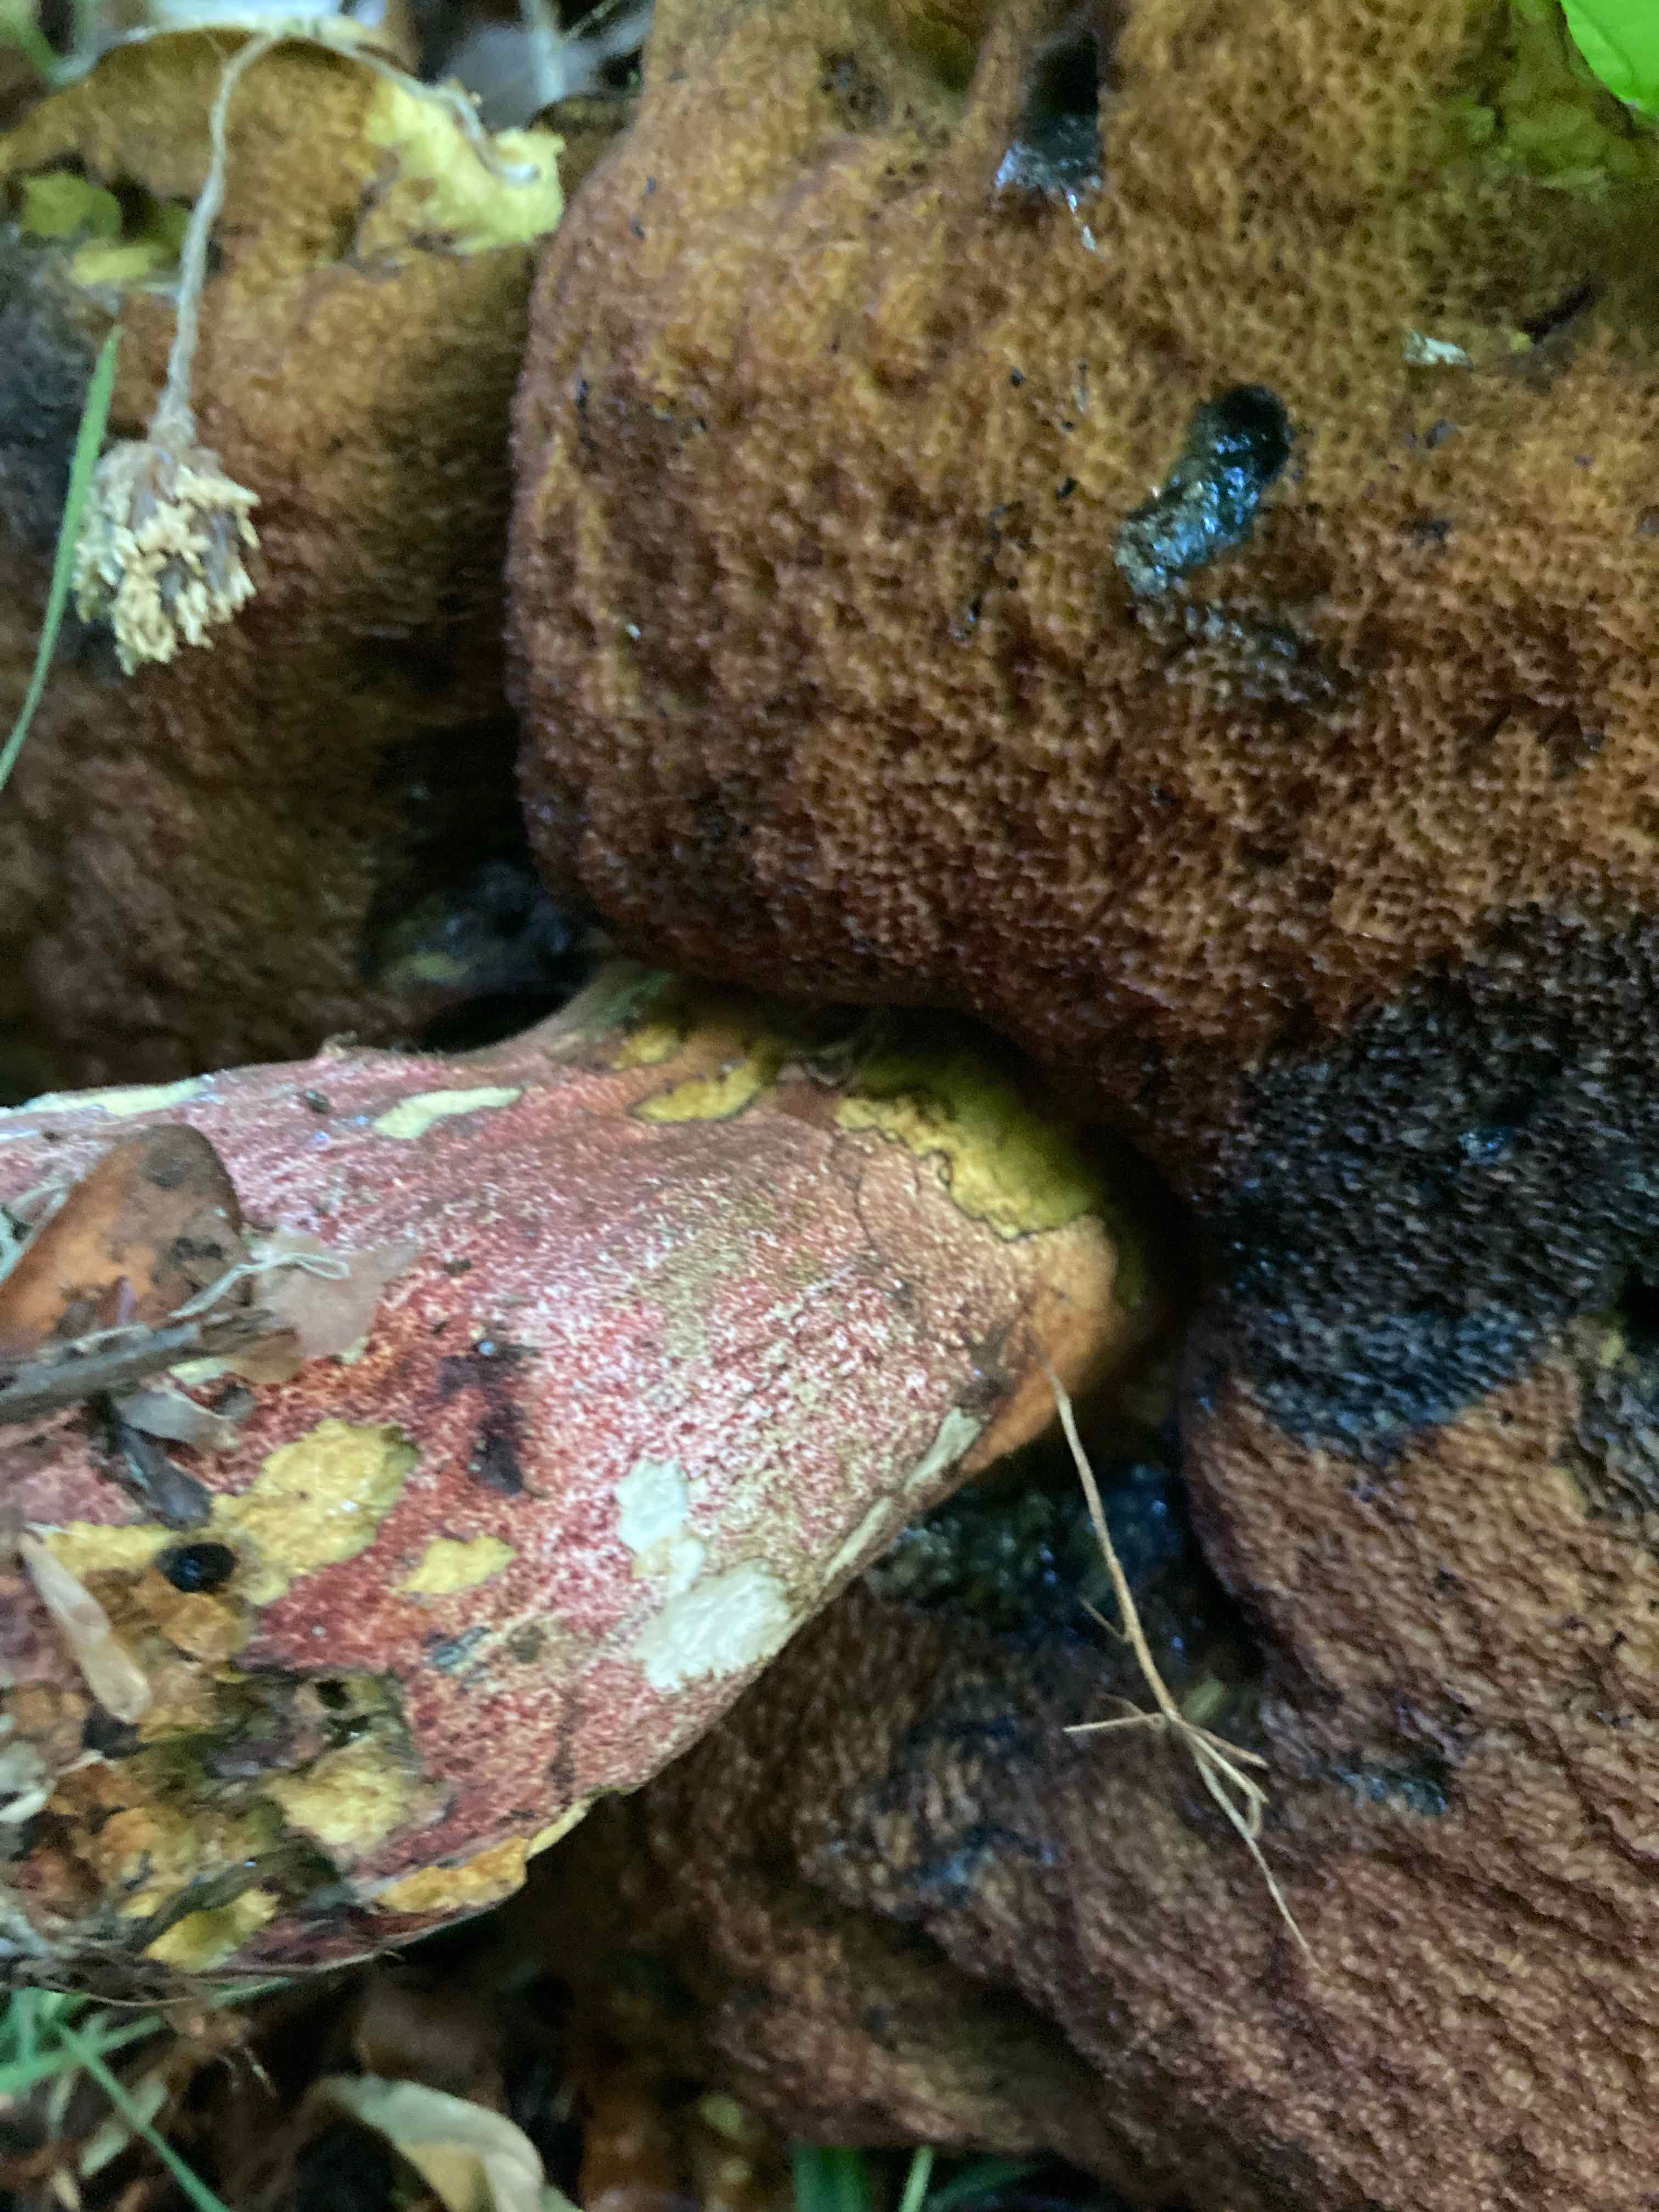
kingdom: Fungi
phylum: Basidiomycota
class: Agaricomycetes
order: Boletales
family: Boletaceae
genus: Neoboletus
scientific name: Neoboletus erythropus
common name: punktstokket indigorørhat
